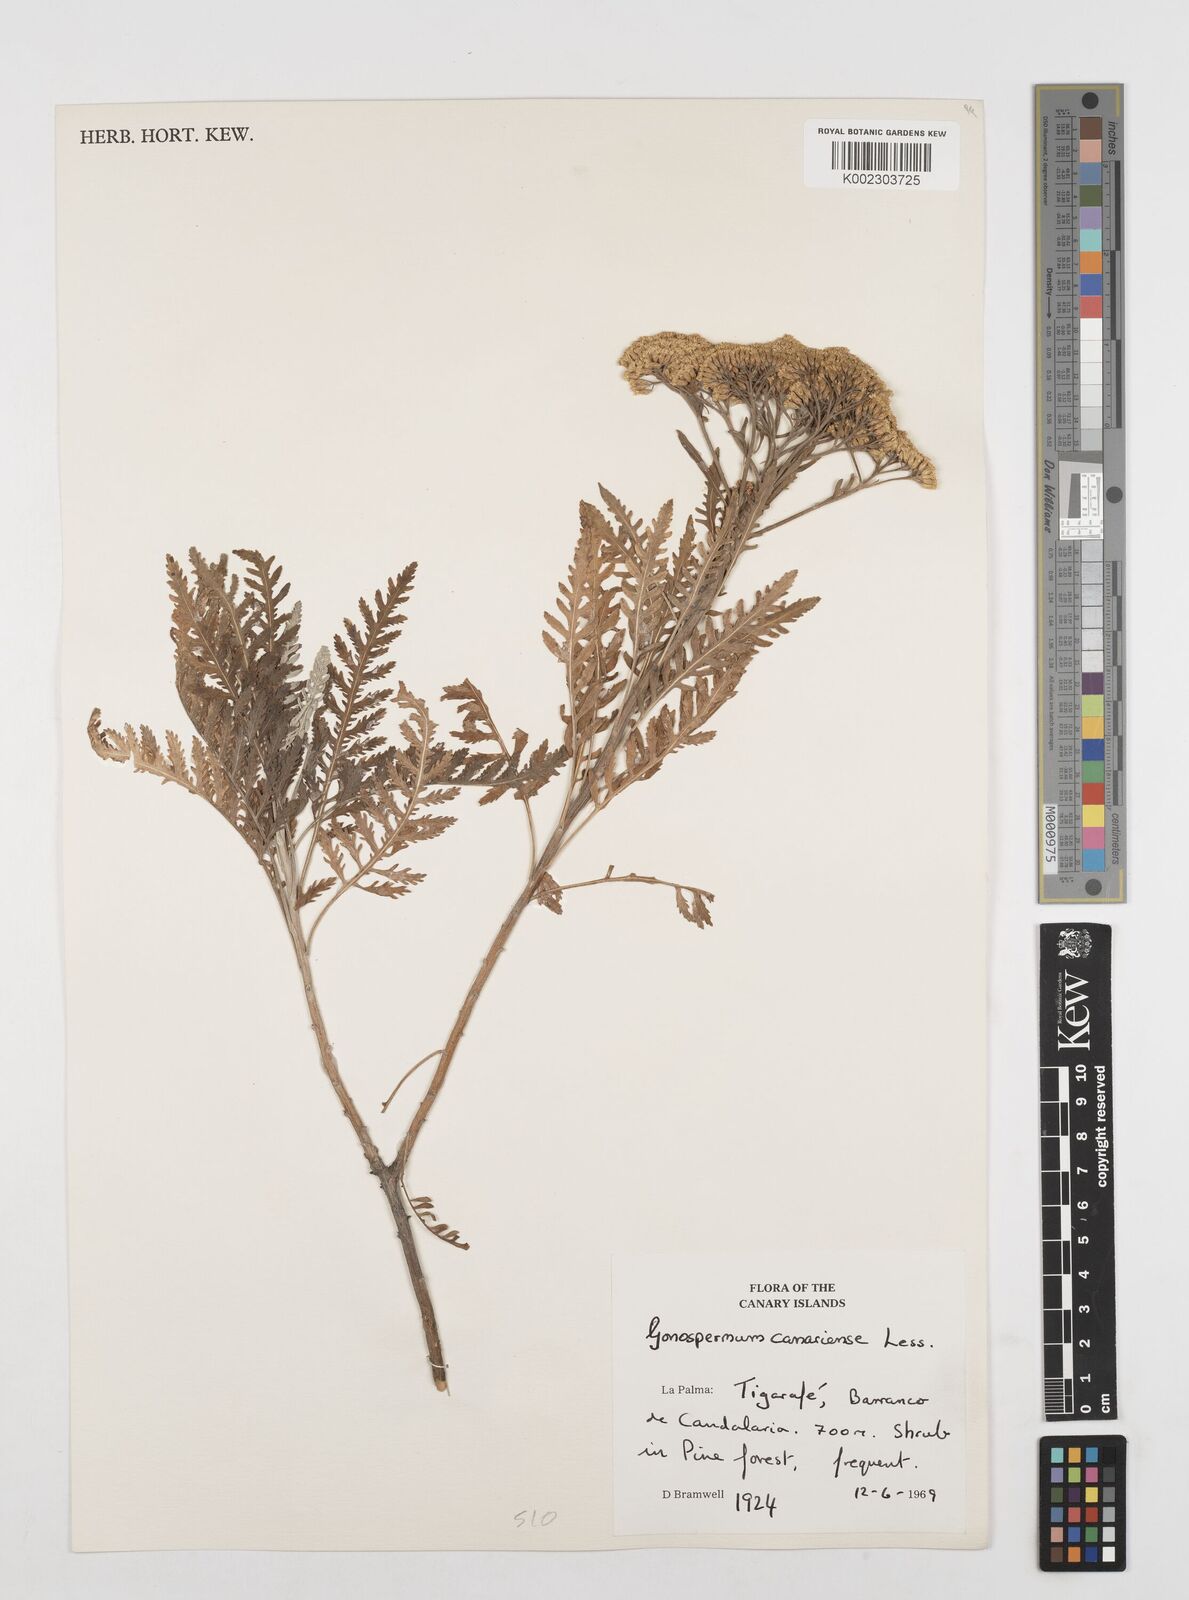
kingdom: Plantae
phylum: Tracheophyta
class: Magnoliopsida
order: Asterales
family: Asteraceae
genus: Gonospermum
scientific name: Gonospermum
